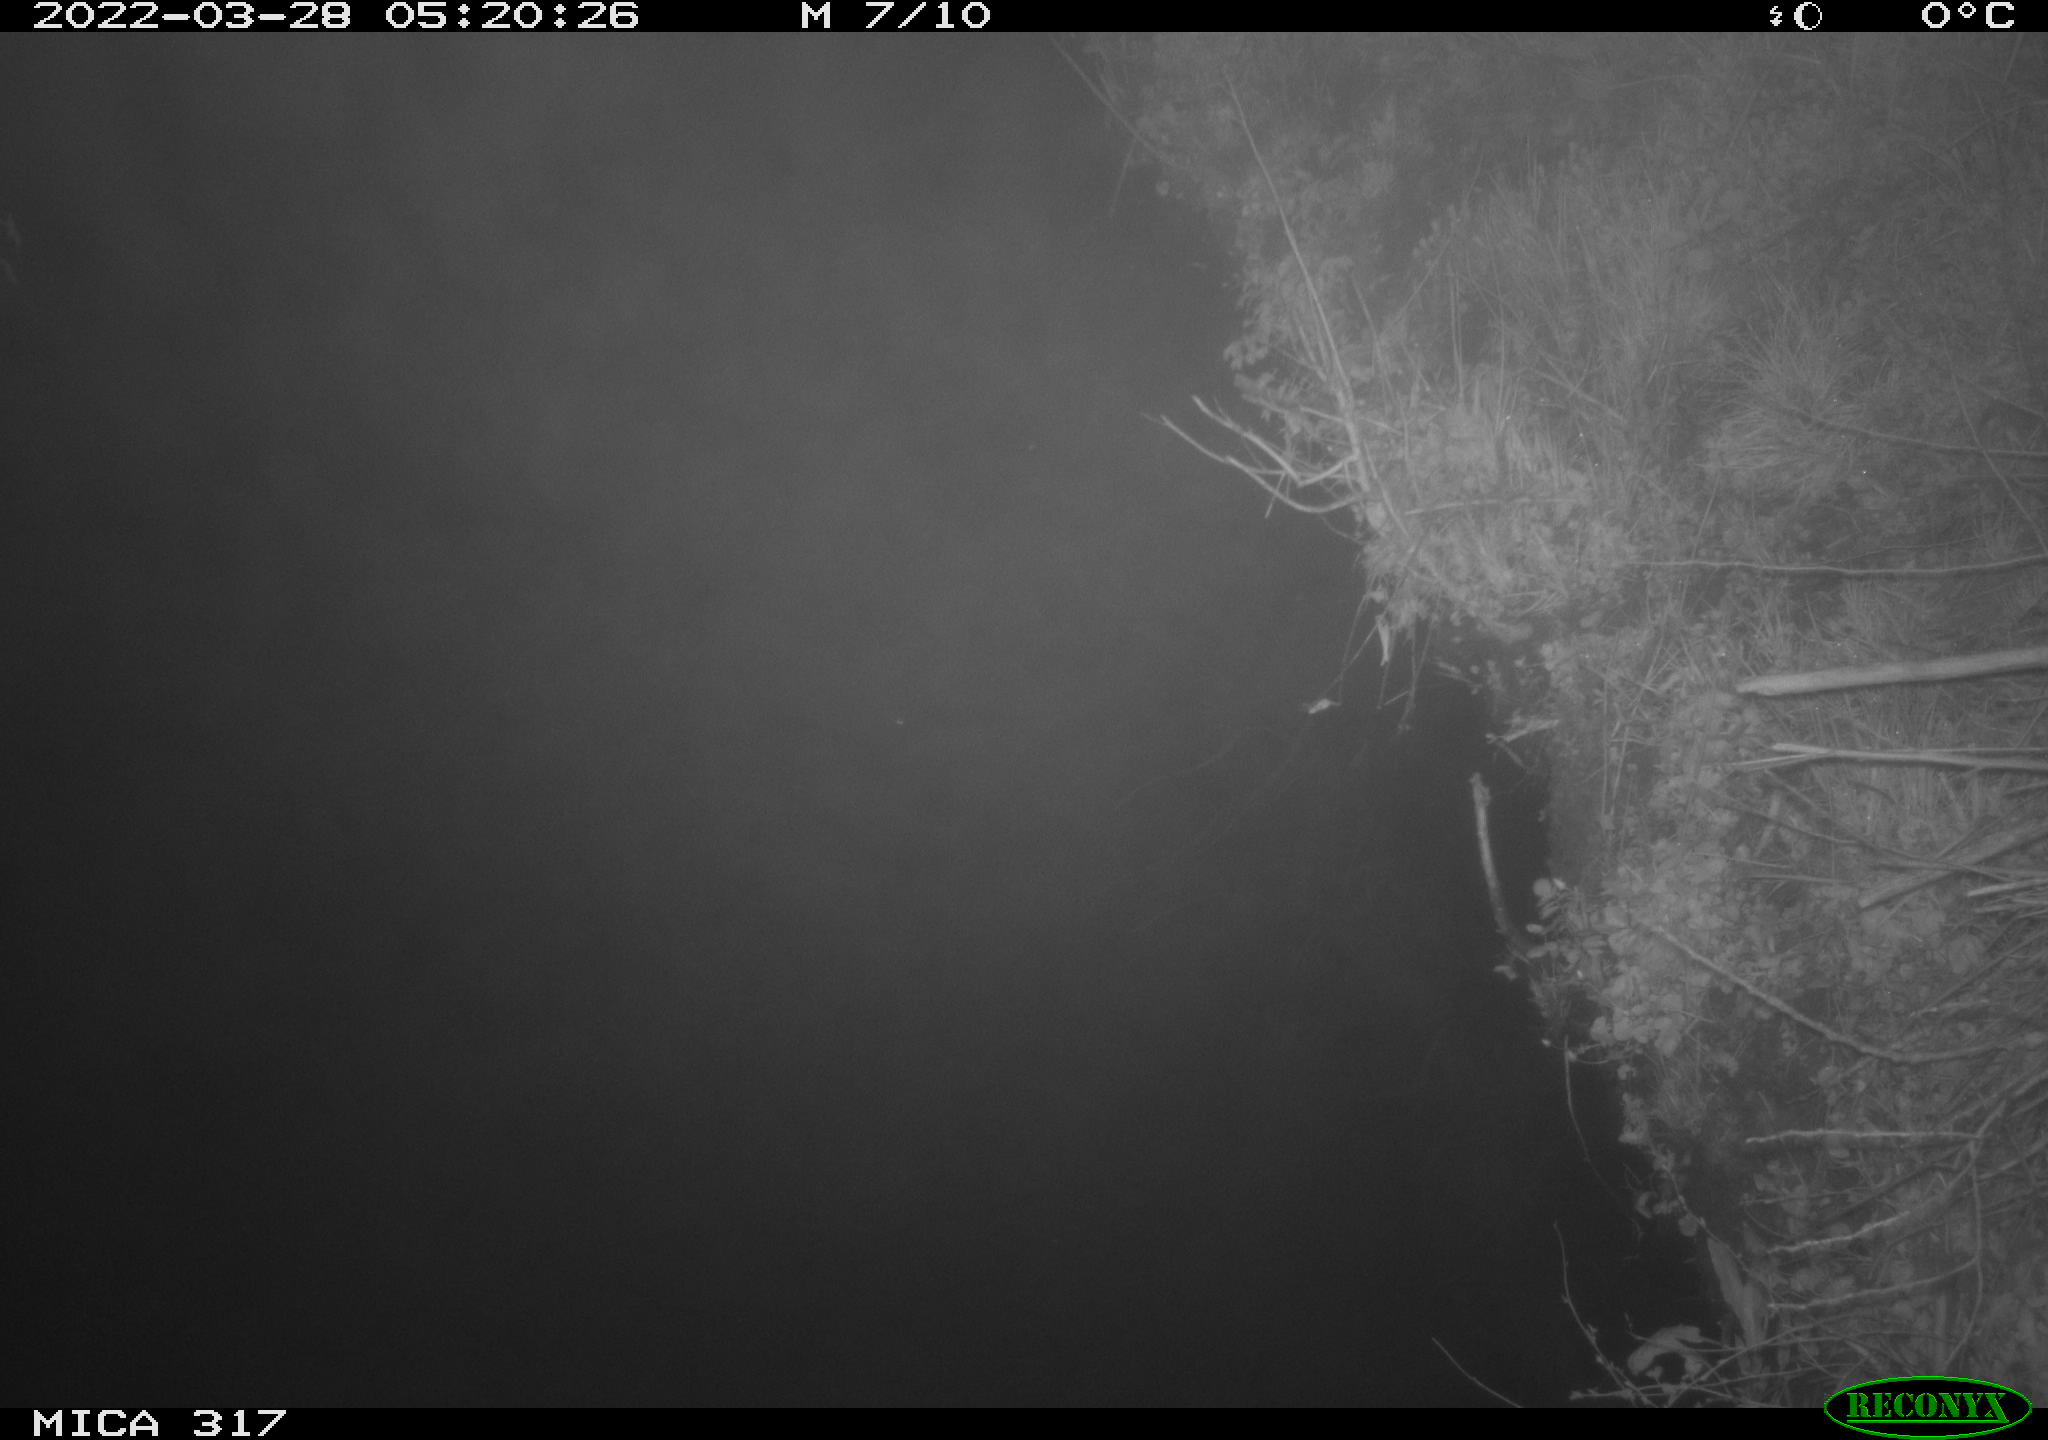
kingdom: Animalia
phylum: Chordata
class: Aves
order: Anseriformes
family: Anatidae
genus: Anas
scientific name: Anas platyrhynchos
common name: Mallard
